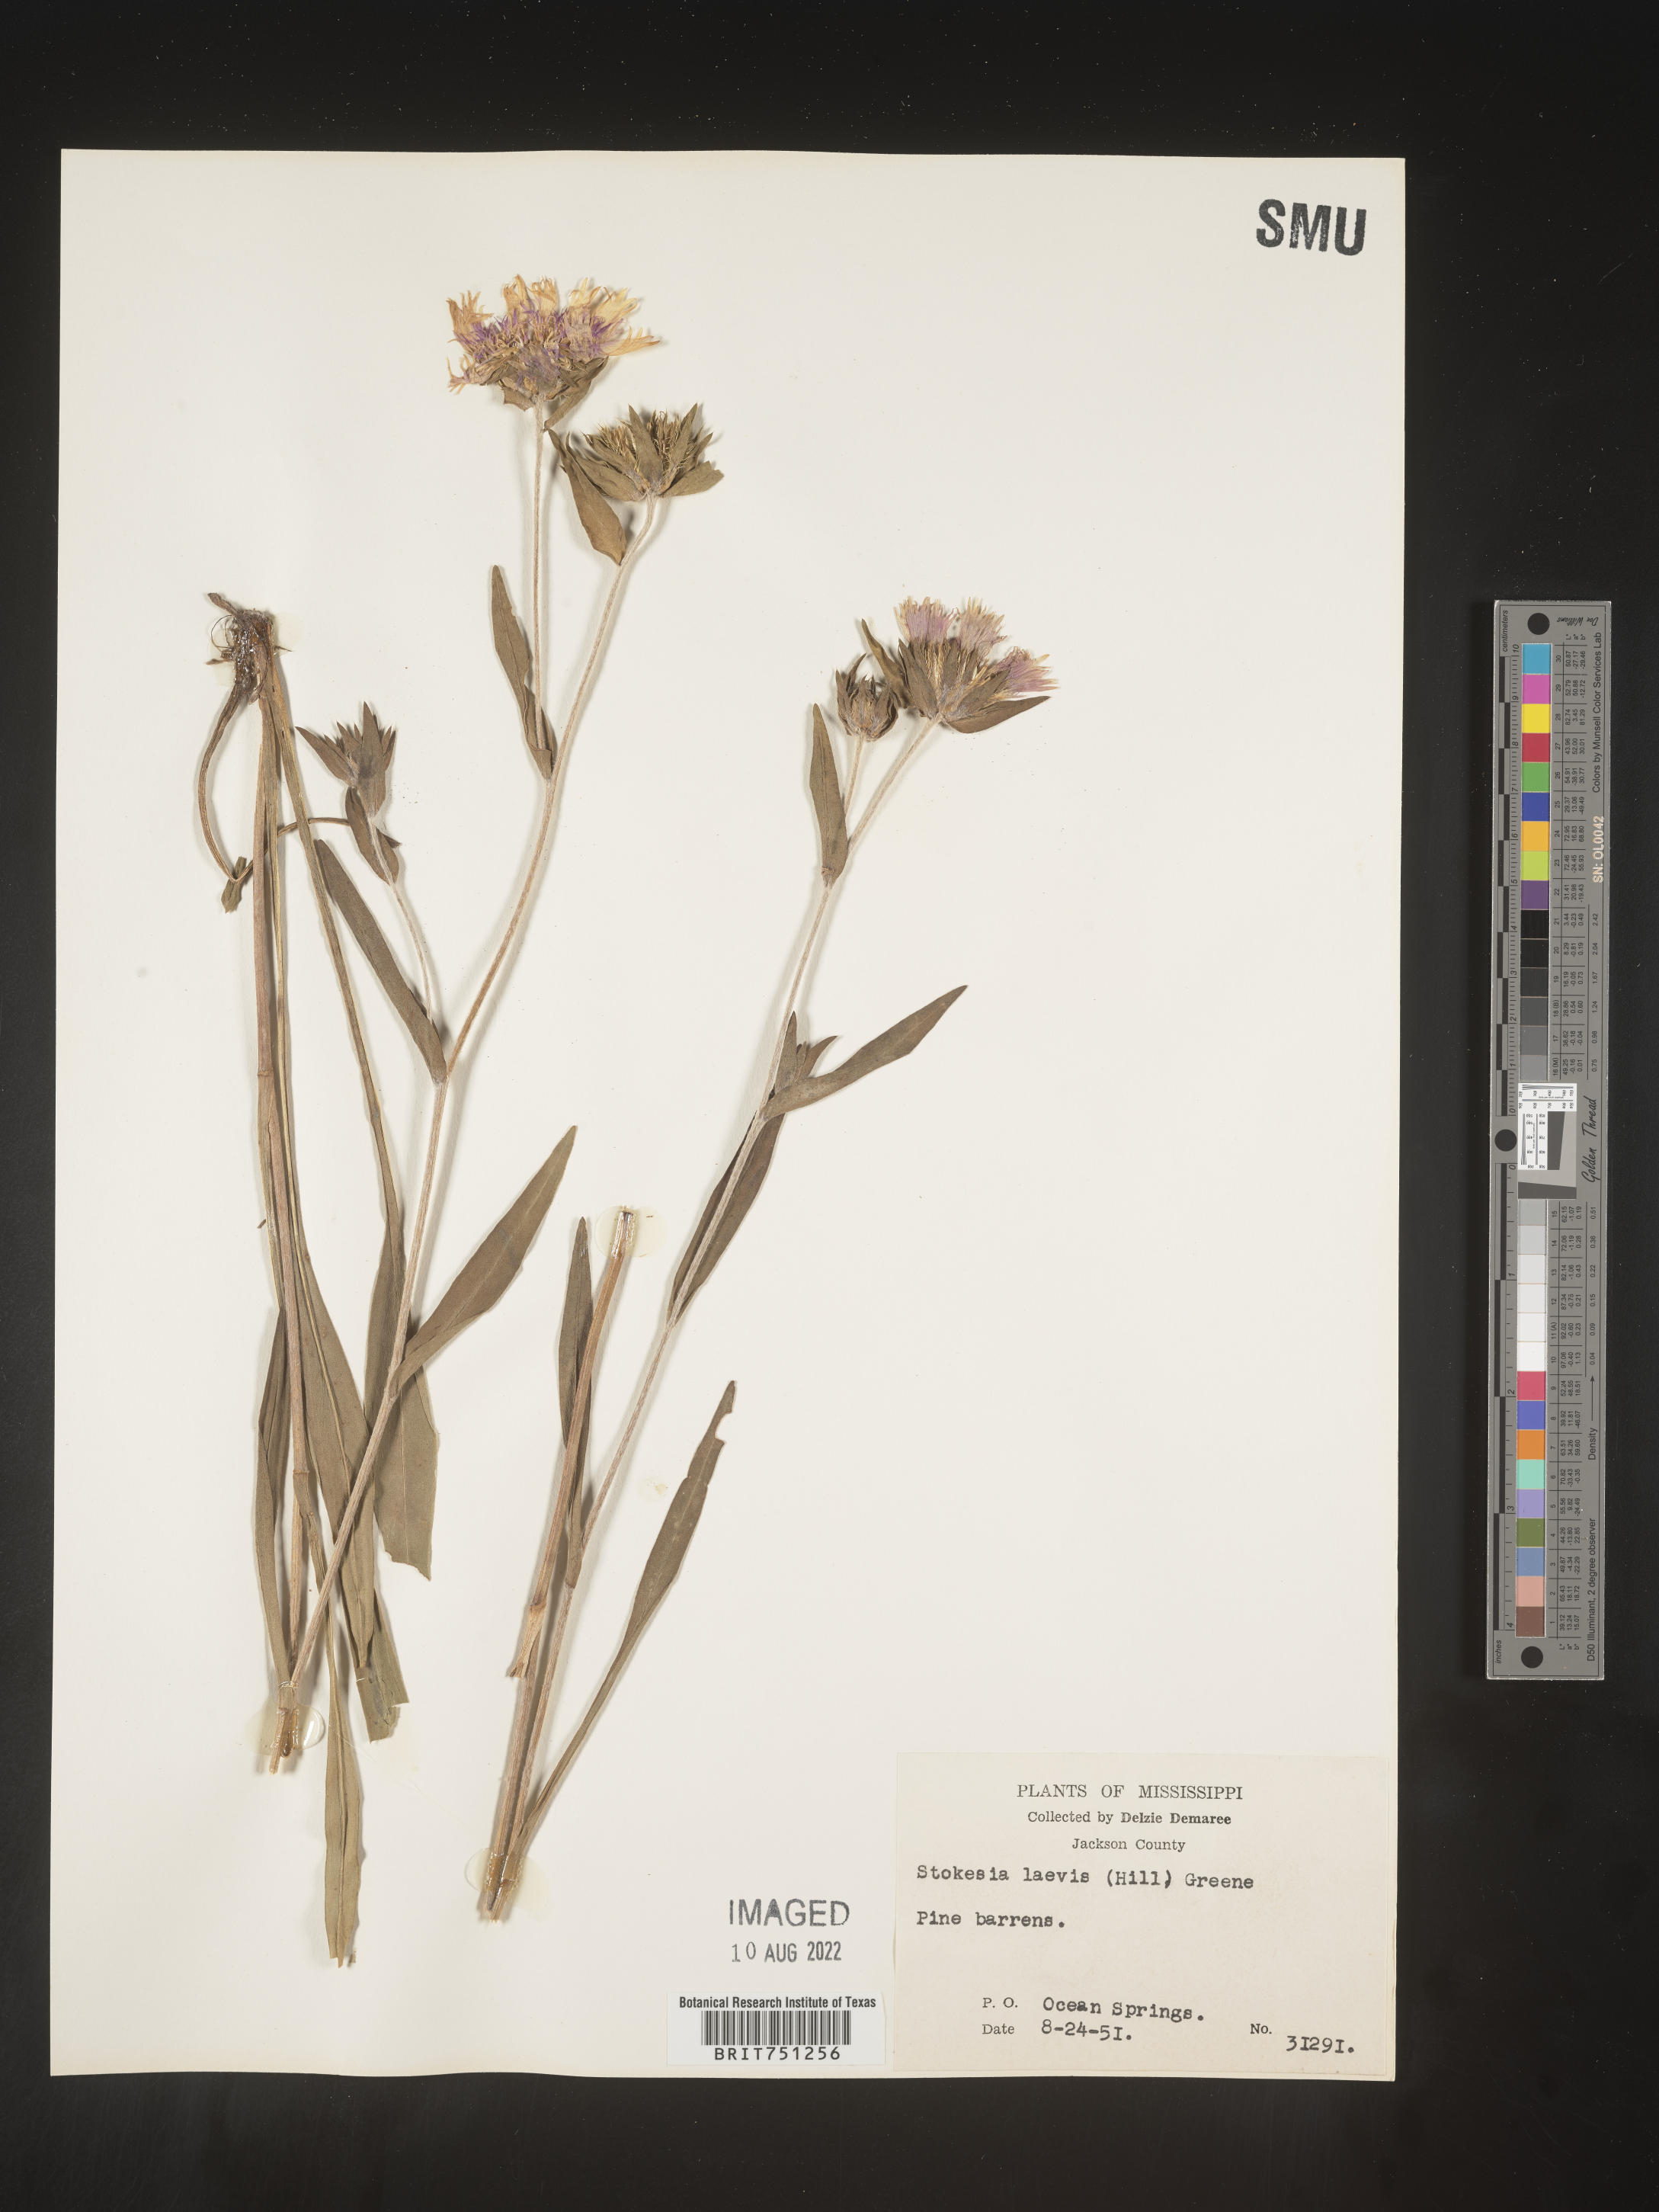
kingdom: Plantae
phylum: Tracheophyta
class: Magnoliopsida
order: Asterales
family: Asteraceae
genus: Stokesia
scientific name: Stokesia
